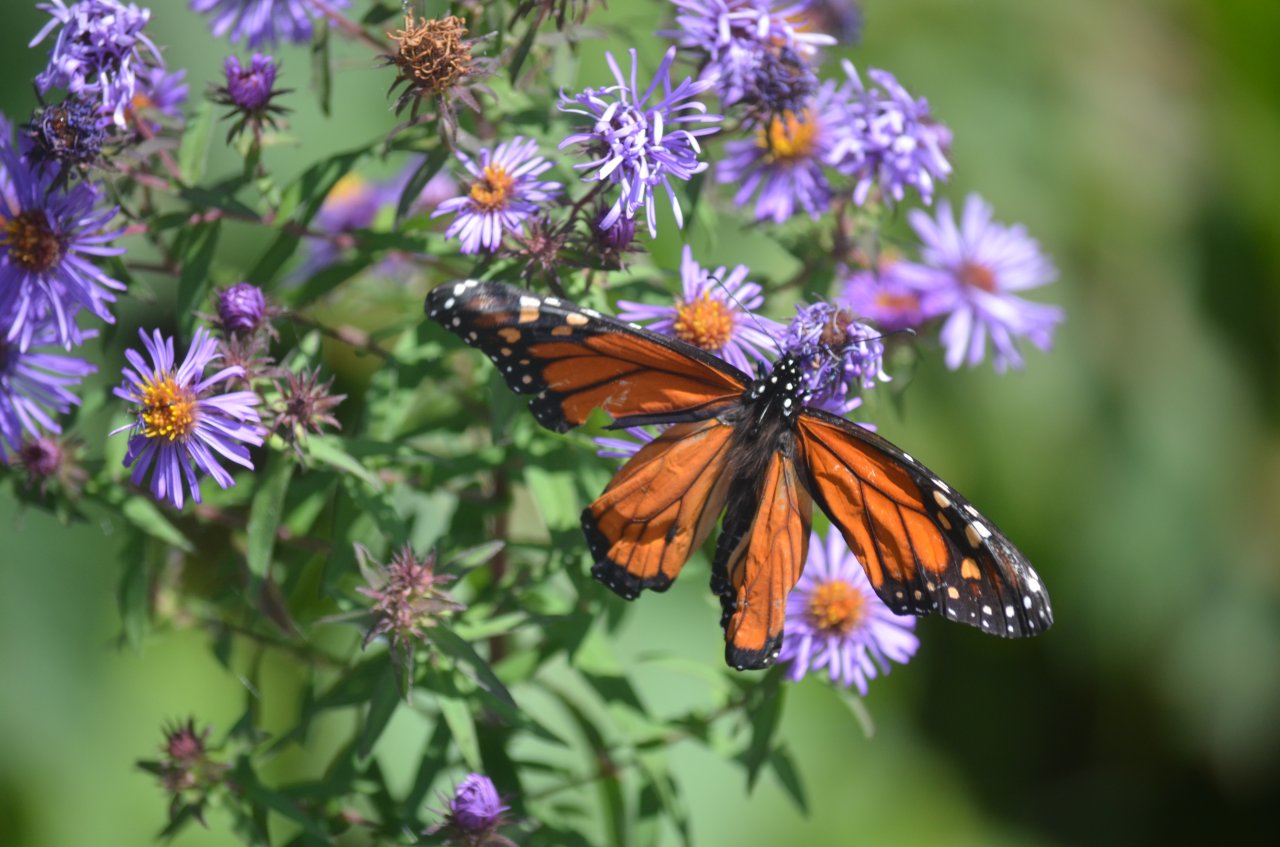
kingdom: Animalia
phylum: Arthropoda
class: Insecta
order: Lepidoptera
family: Nymphalidae
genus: Danaus
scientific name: Danaus plexippus
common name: Monarch
